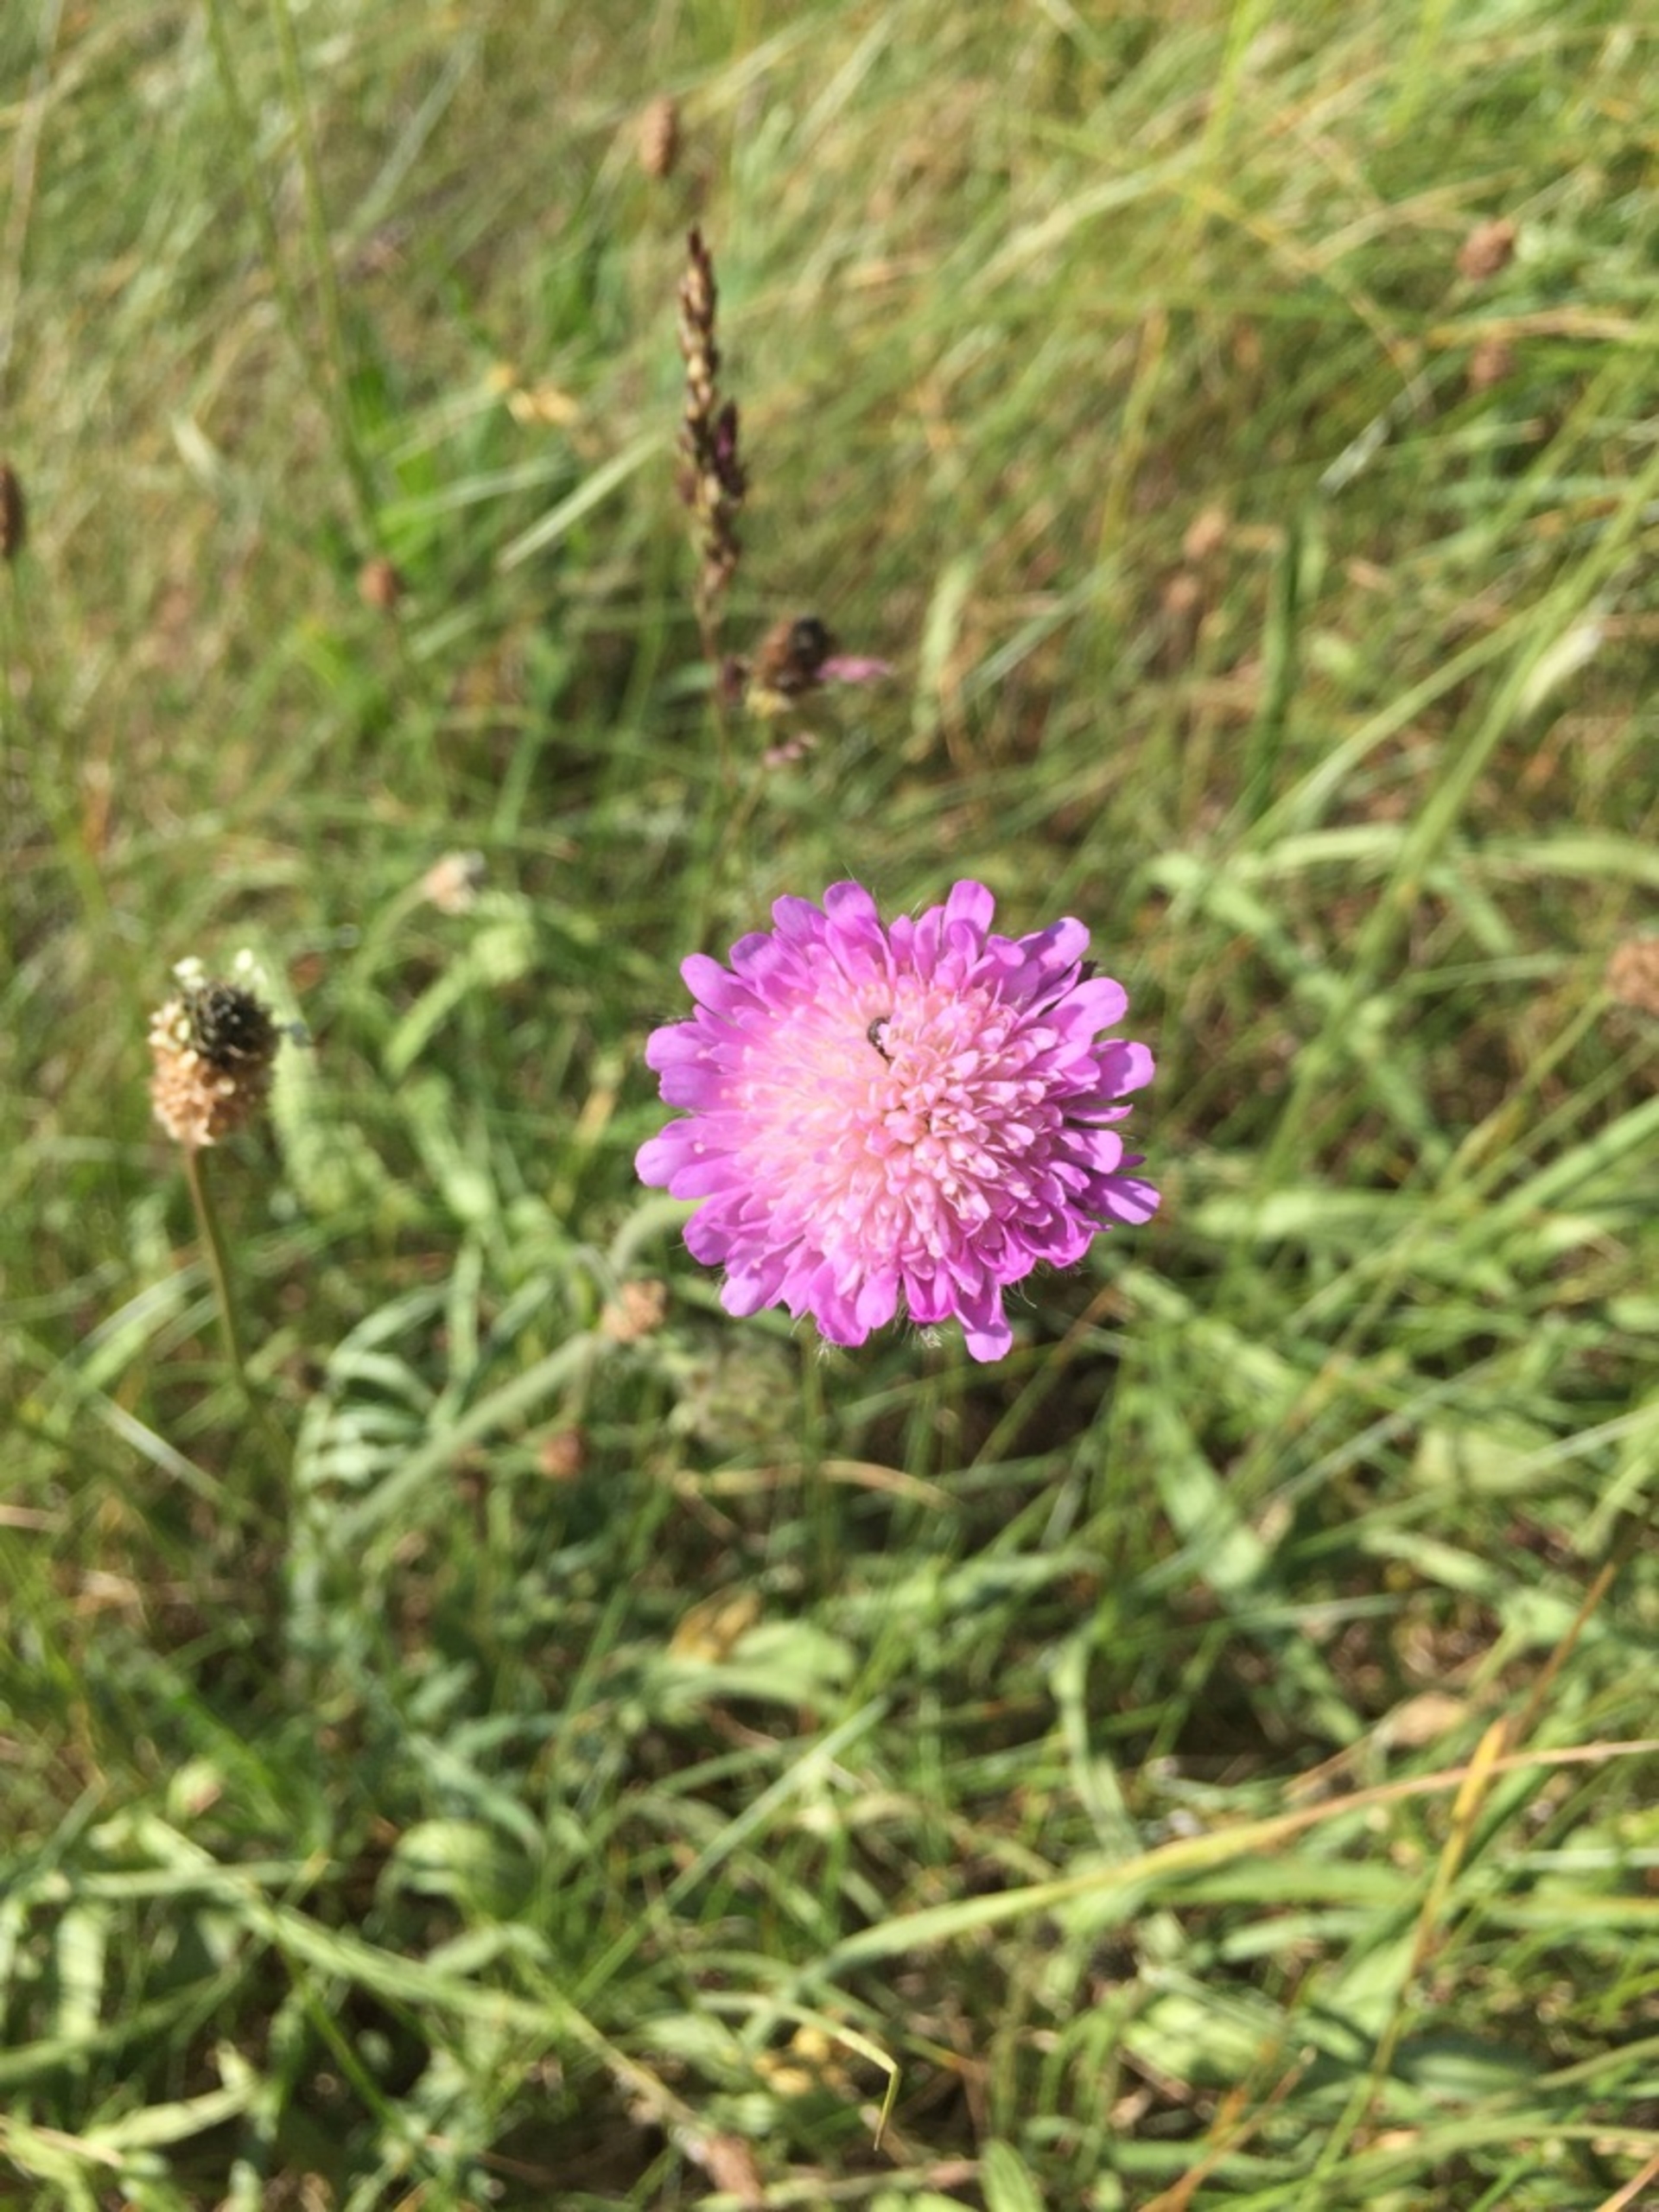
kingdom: Plantae
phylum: Tracheophyta
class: Magnoliopsida
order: Dipsacales
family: Caprifoliaceae
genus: Knautia
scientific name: Knautia arvensis
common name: Blåhat
